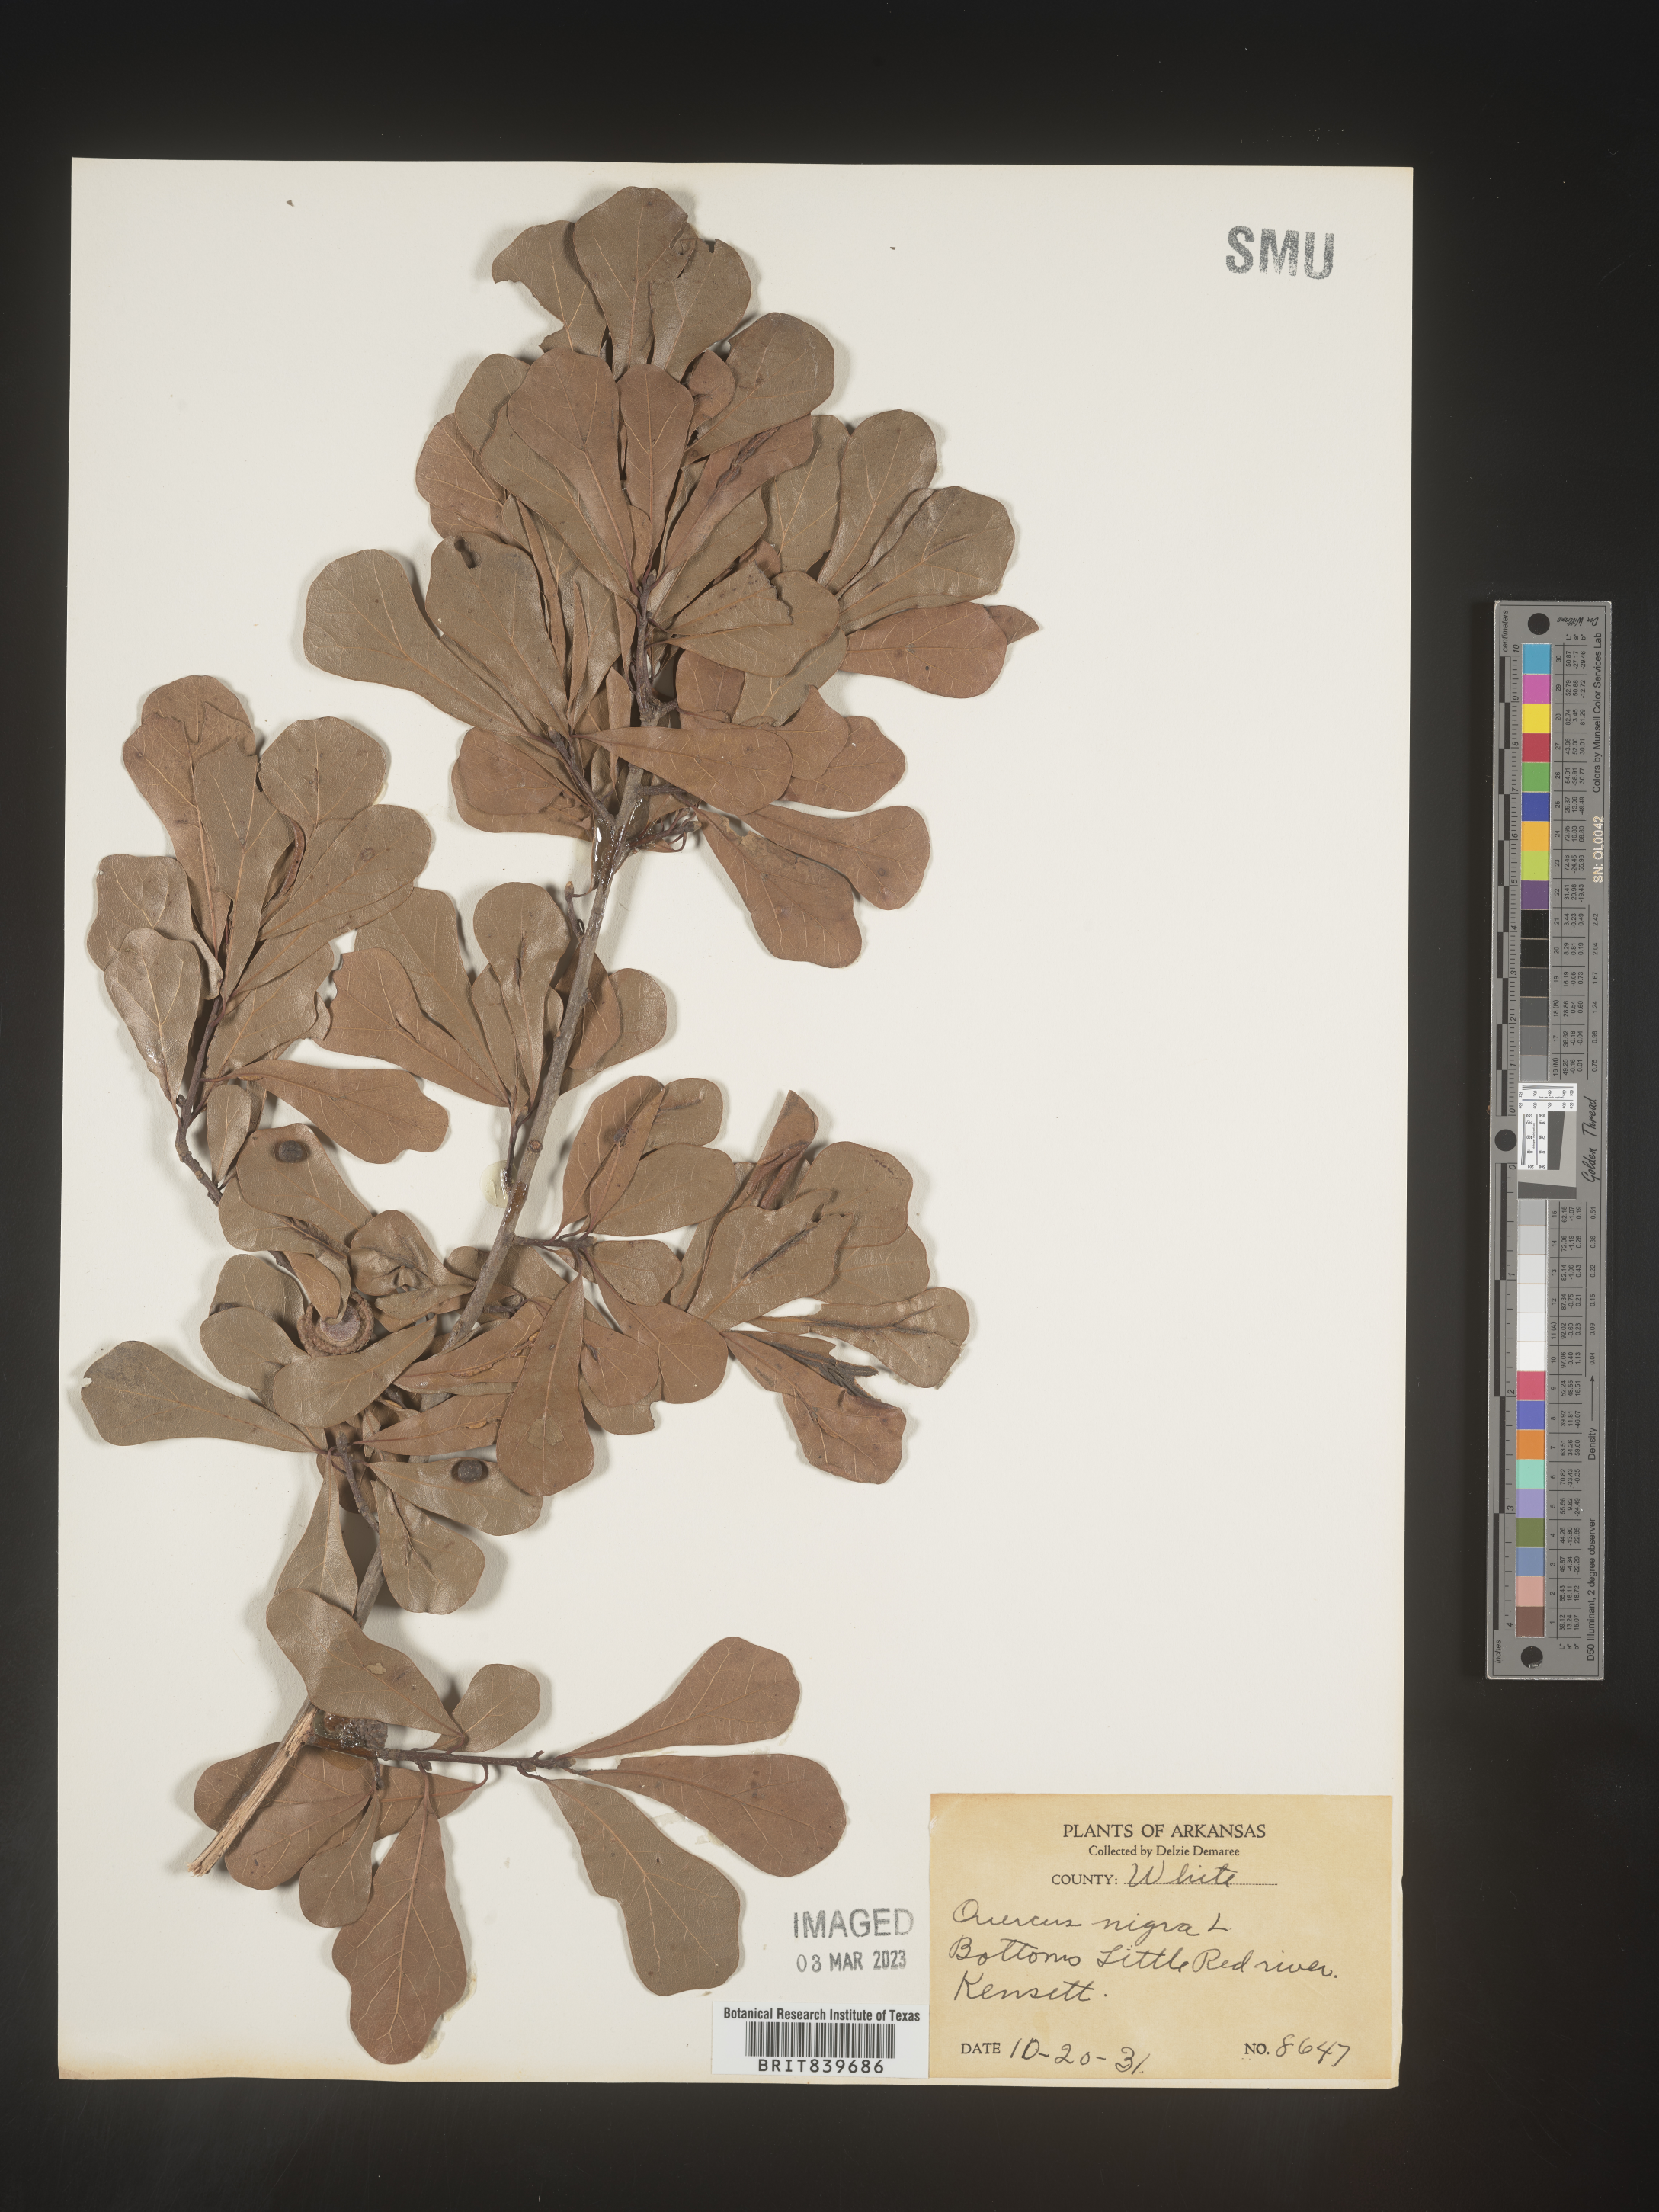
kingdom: Plantae
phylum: Tracheophyta
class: Magnoliopsida
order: Fagales
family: Fagaceae
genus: Quercus
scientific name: Quercus nigra
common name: Water oak
